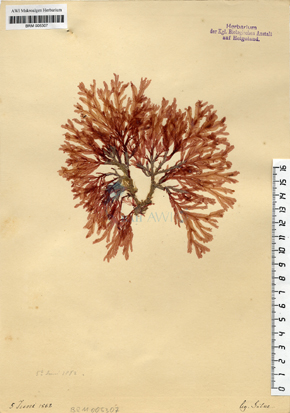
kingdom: Plantae
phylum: Rhodophyta
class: Florideophyceae
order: Ceramiales
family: Delesseriaceae
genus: Membranoptera
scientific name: Membranoptera alata
